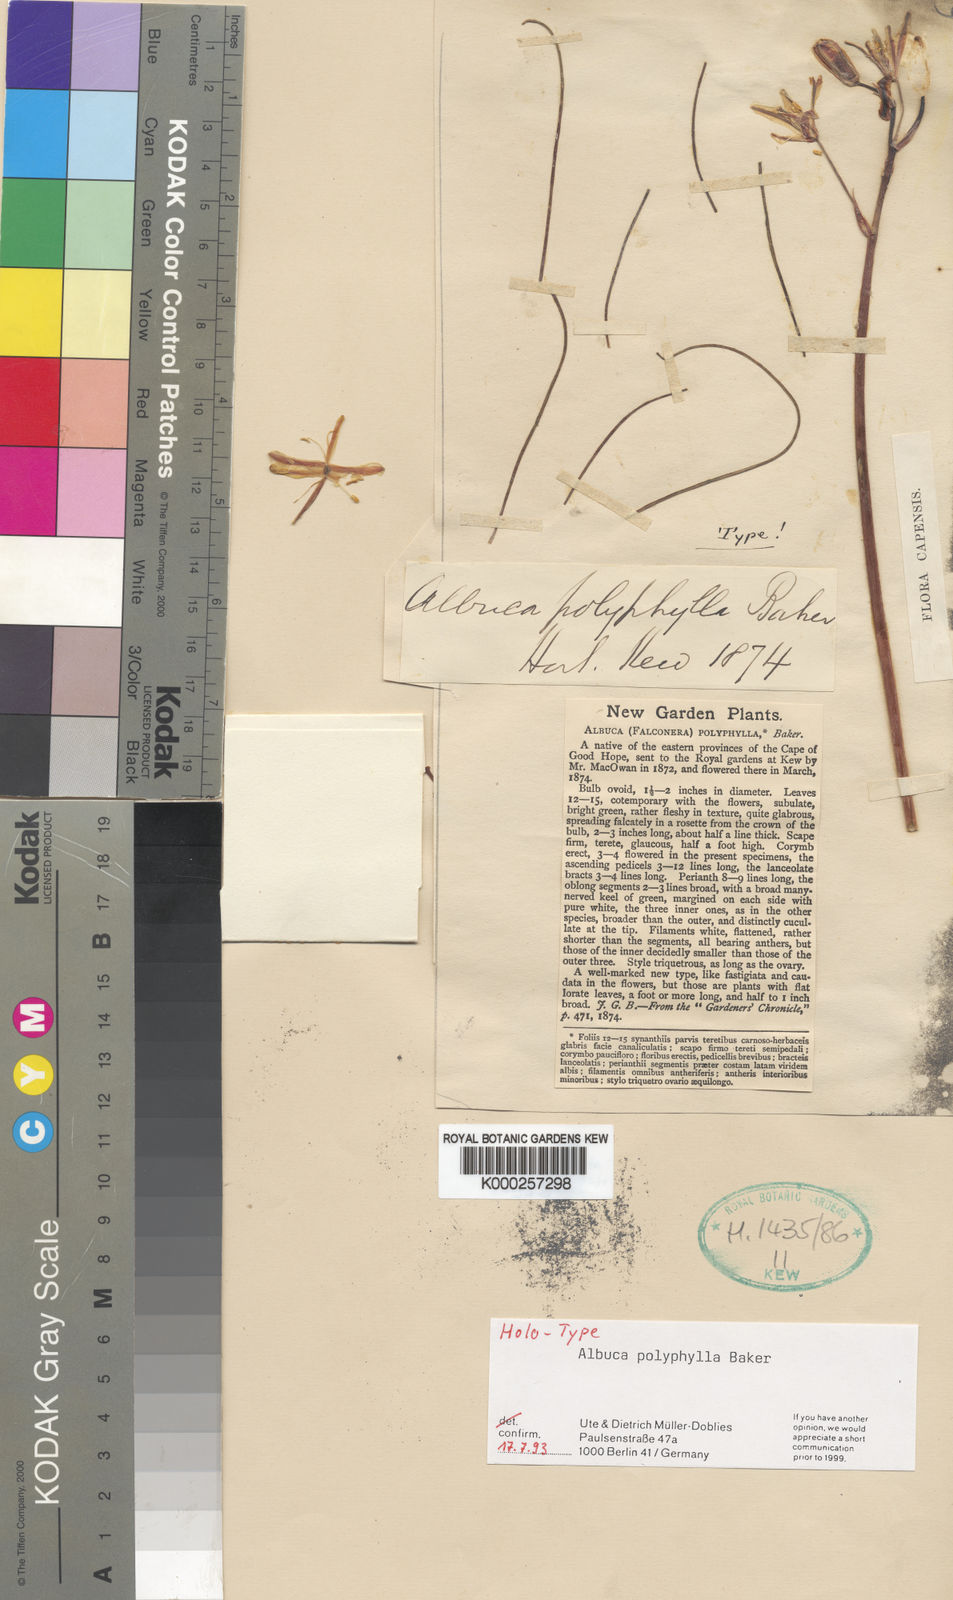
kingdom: Plantae
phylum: Tracheophyta
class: Liliopsida
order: Asparagales
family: Asparagaceae
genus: Albuca
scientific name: Albuca polyphylla
